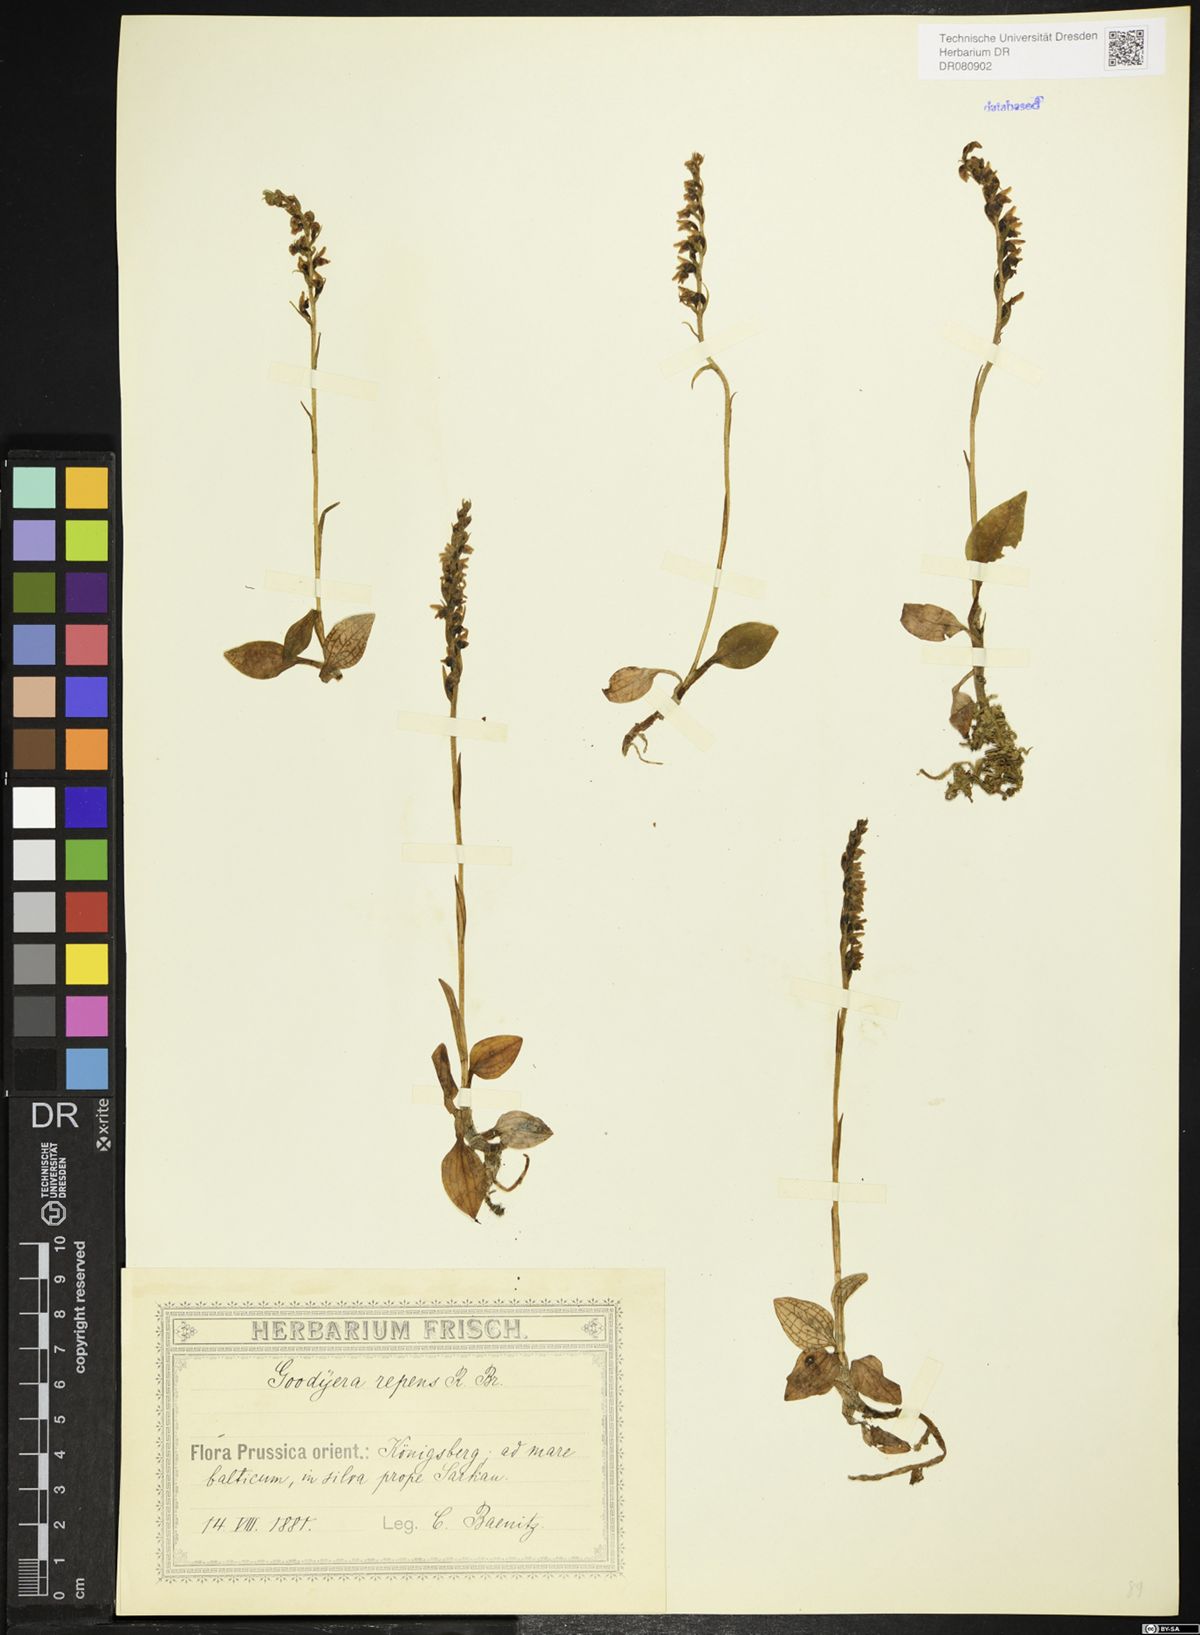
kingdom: Plantae
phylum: Tracheophyta
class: Liliopsida
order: Asparagales
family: Orchidaceae
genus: Goodyera
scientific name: Goodyera repens
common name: Creeping lady's-tresses
